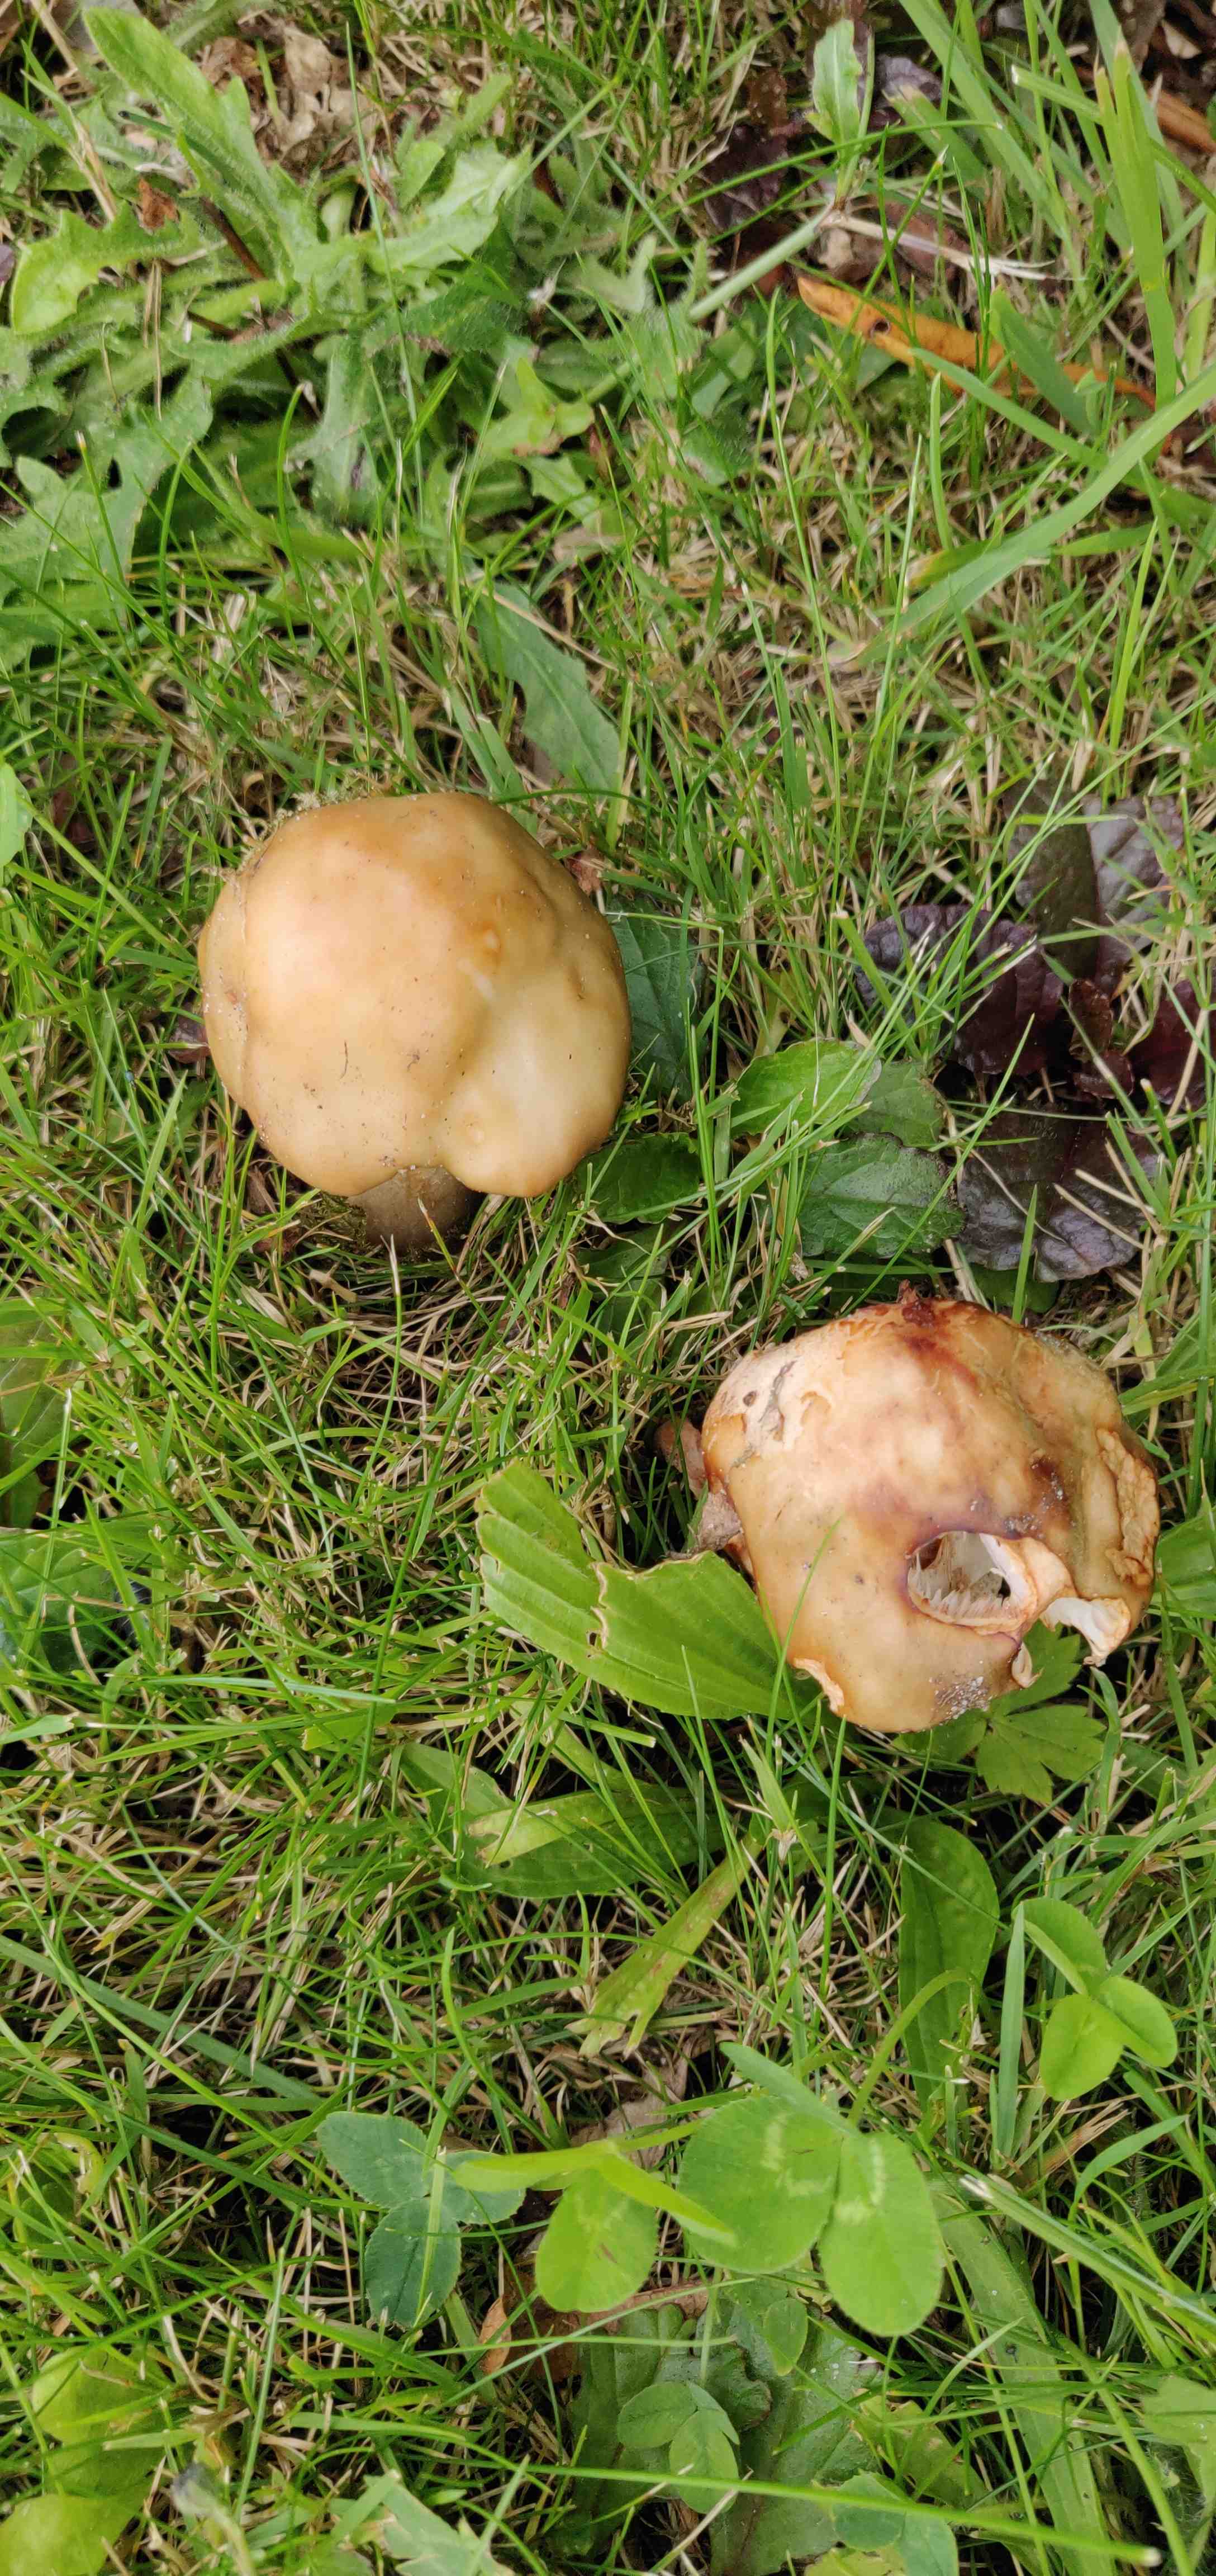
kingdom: Fungi
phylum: Basidiomycota
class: Agaricomycetes
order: Agaricales
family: Amanitaceae
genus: Amanita
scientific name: Amanita rubescens
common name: rødmende fluesvamp
